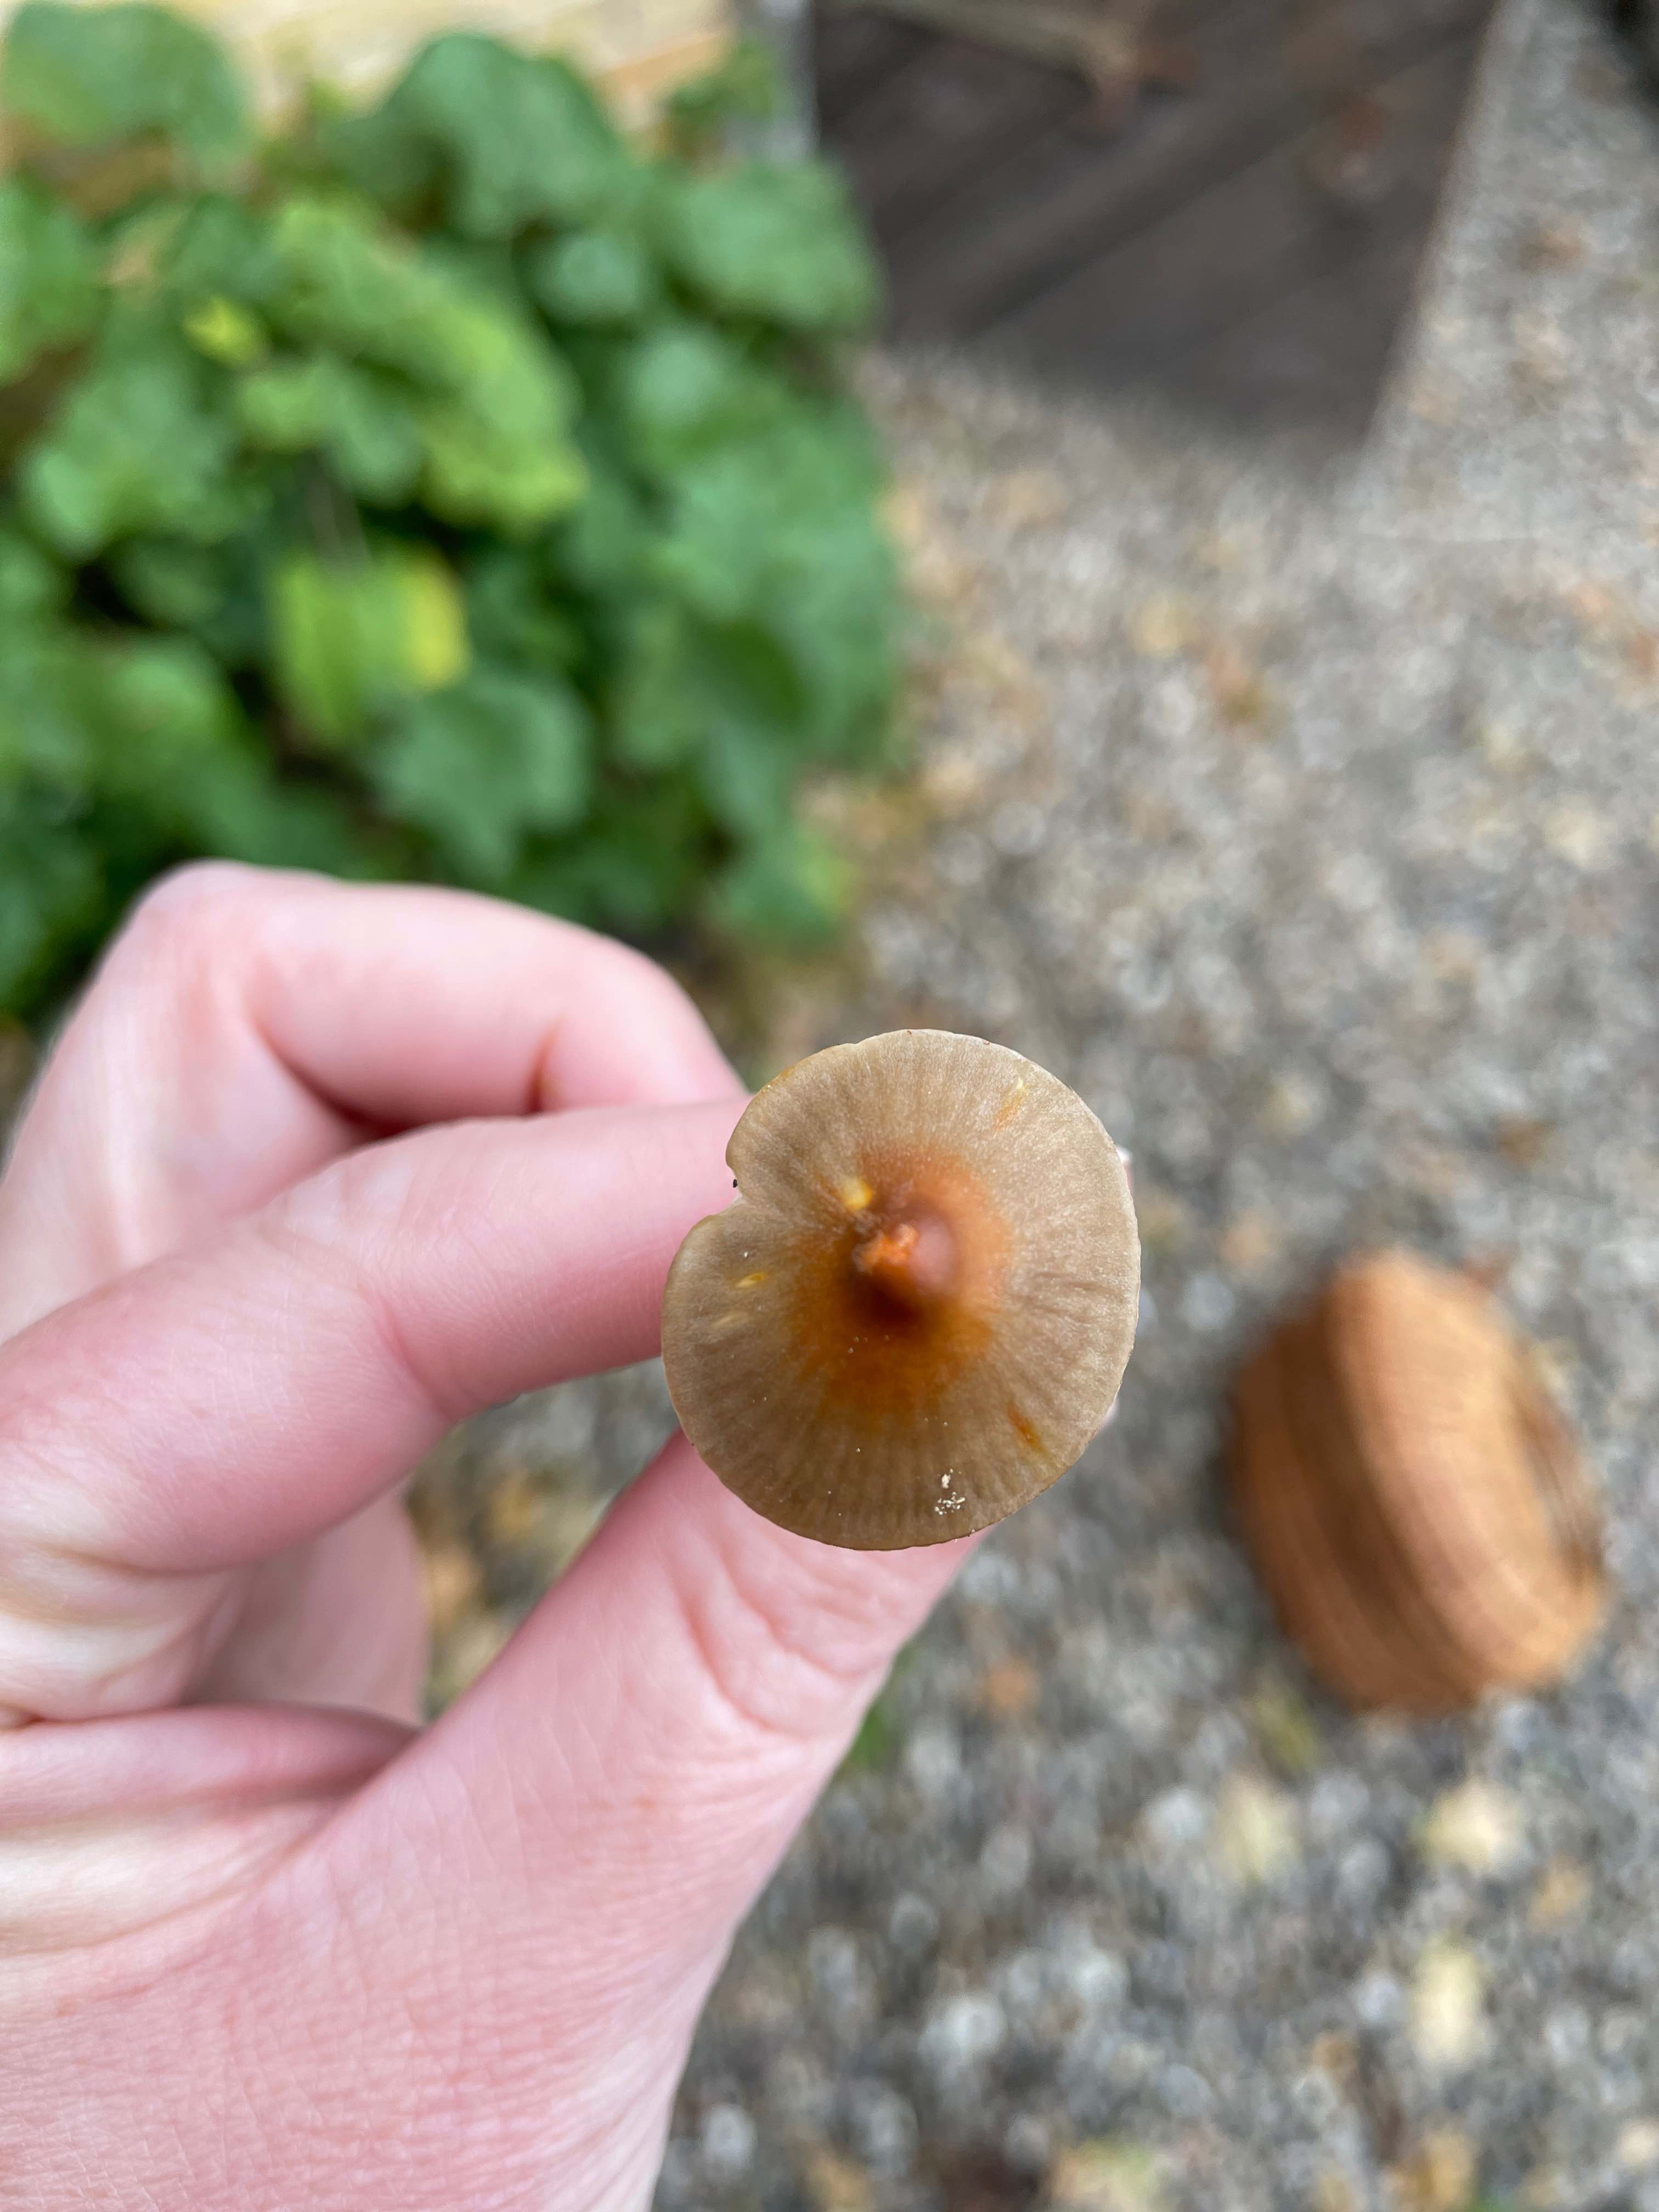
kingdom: Fungi
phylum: Basidiomycota
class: Agaricomycetes
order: Agaricales
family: Mycenaceae
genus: Mycena
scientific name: Mycena crocata
